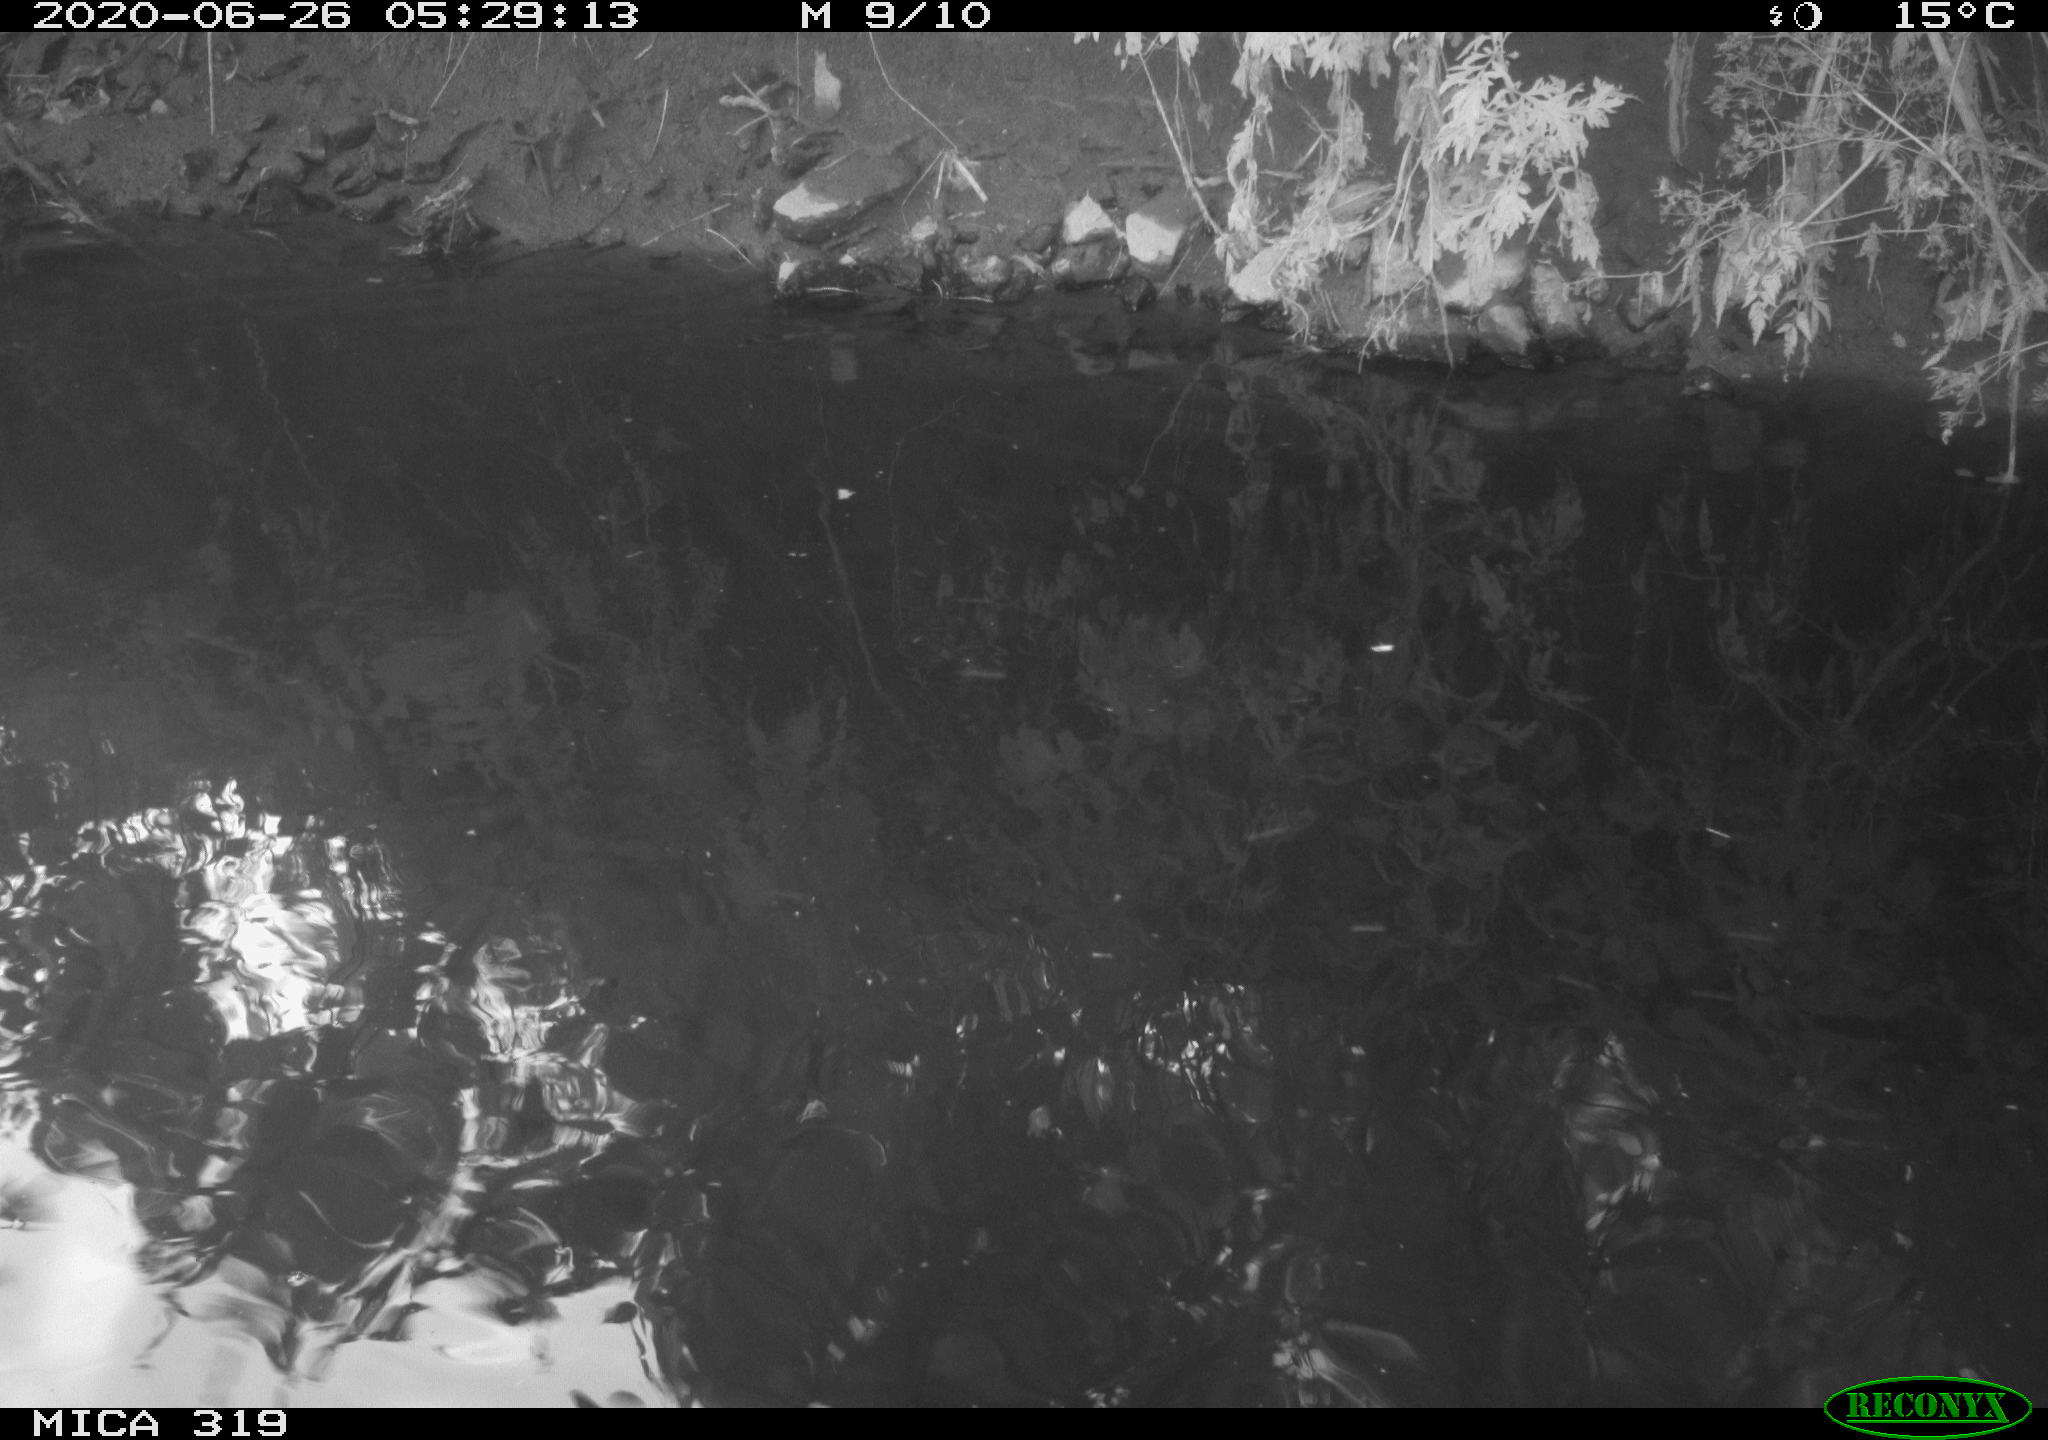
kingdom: Animalia
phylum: Chordata
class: Aves
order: Anseriformes
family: Anatidae
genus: Anas
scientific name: Anas platyrhynchos
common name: Mallard
